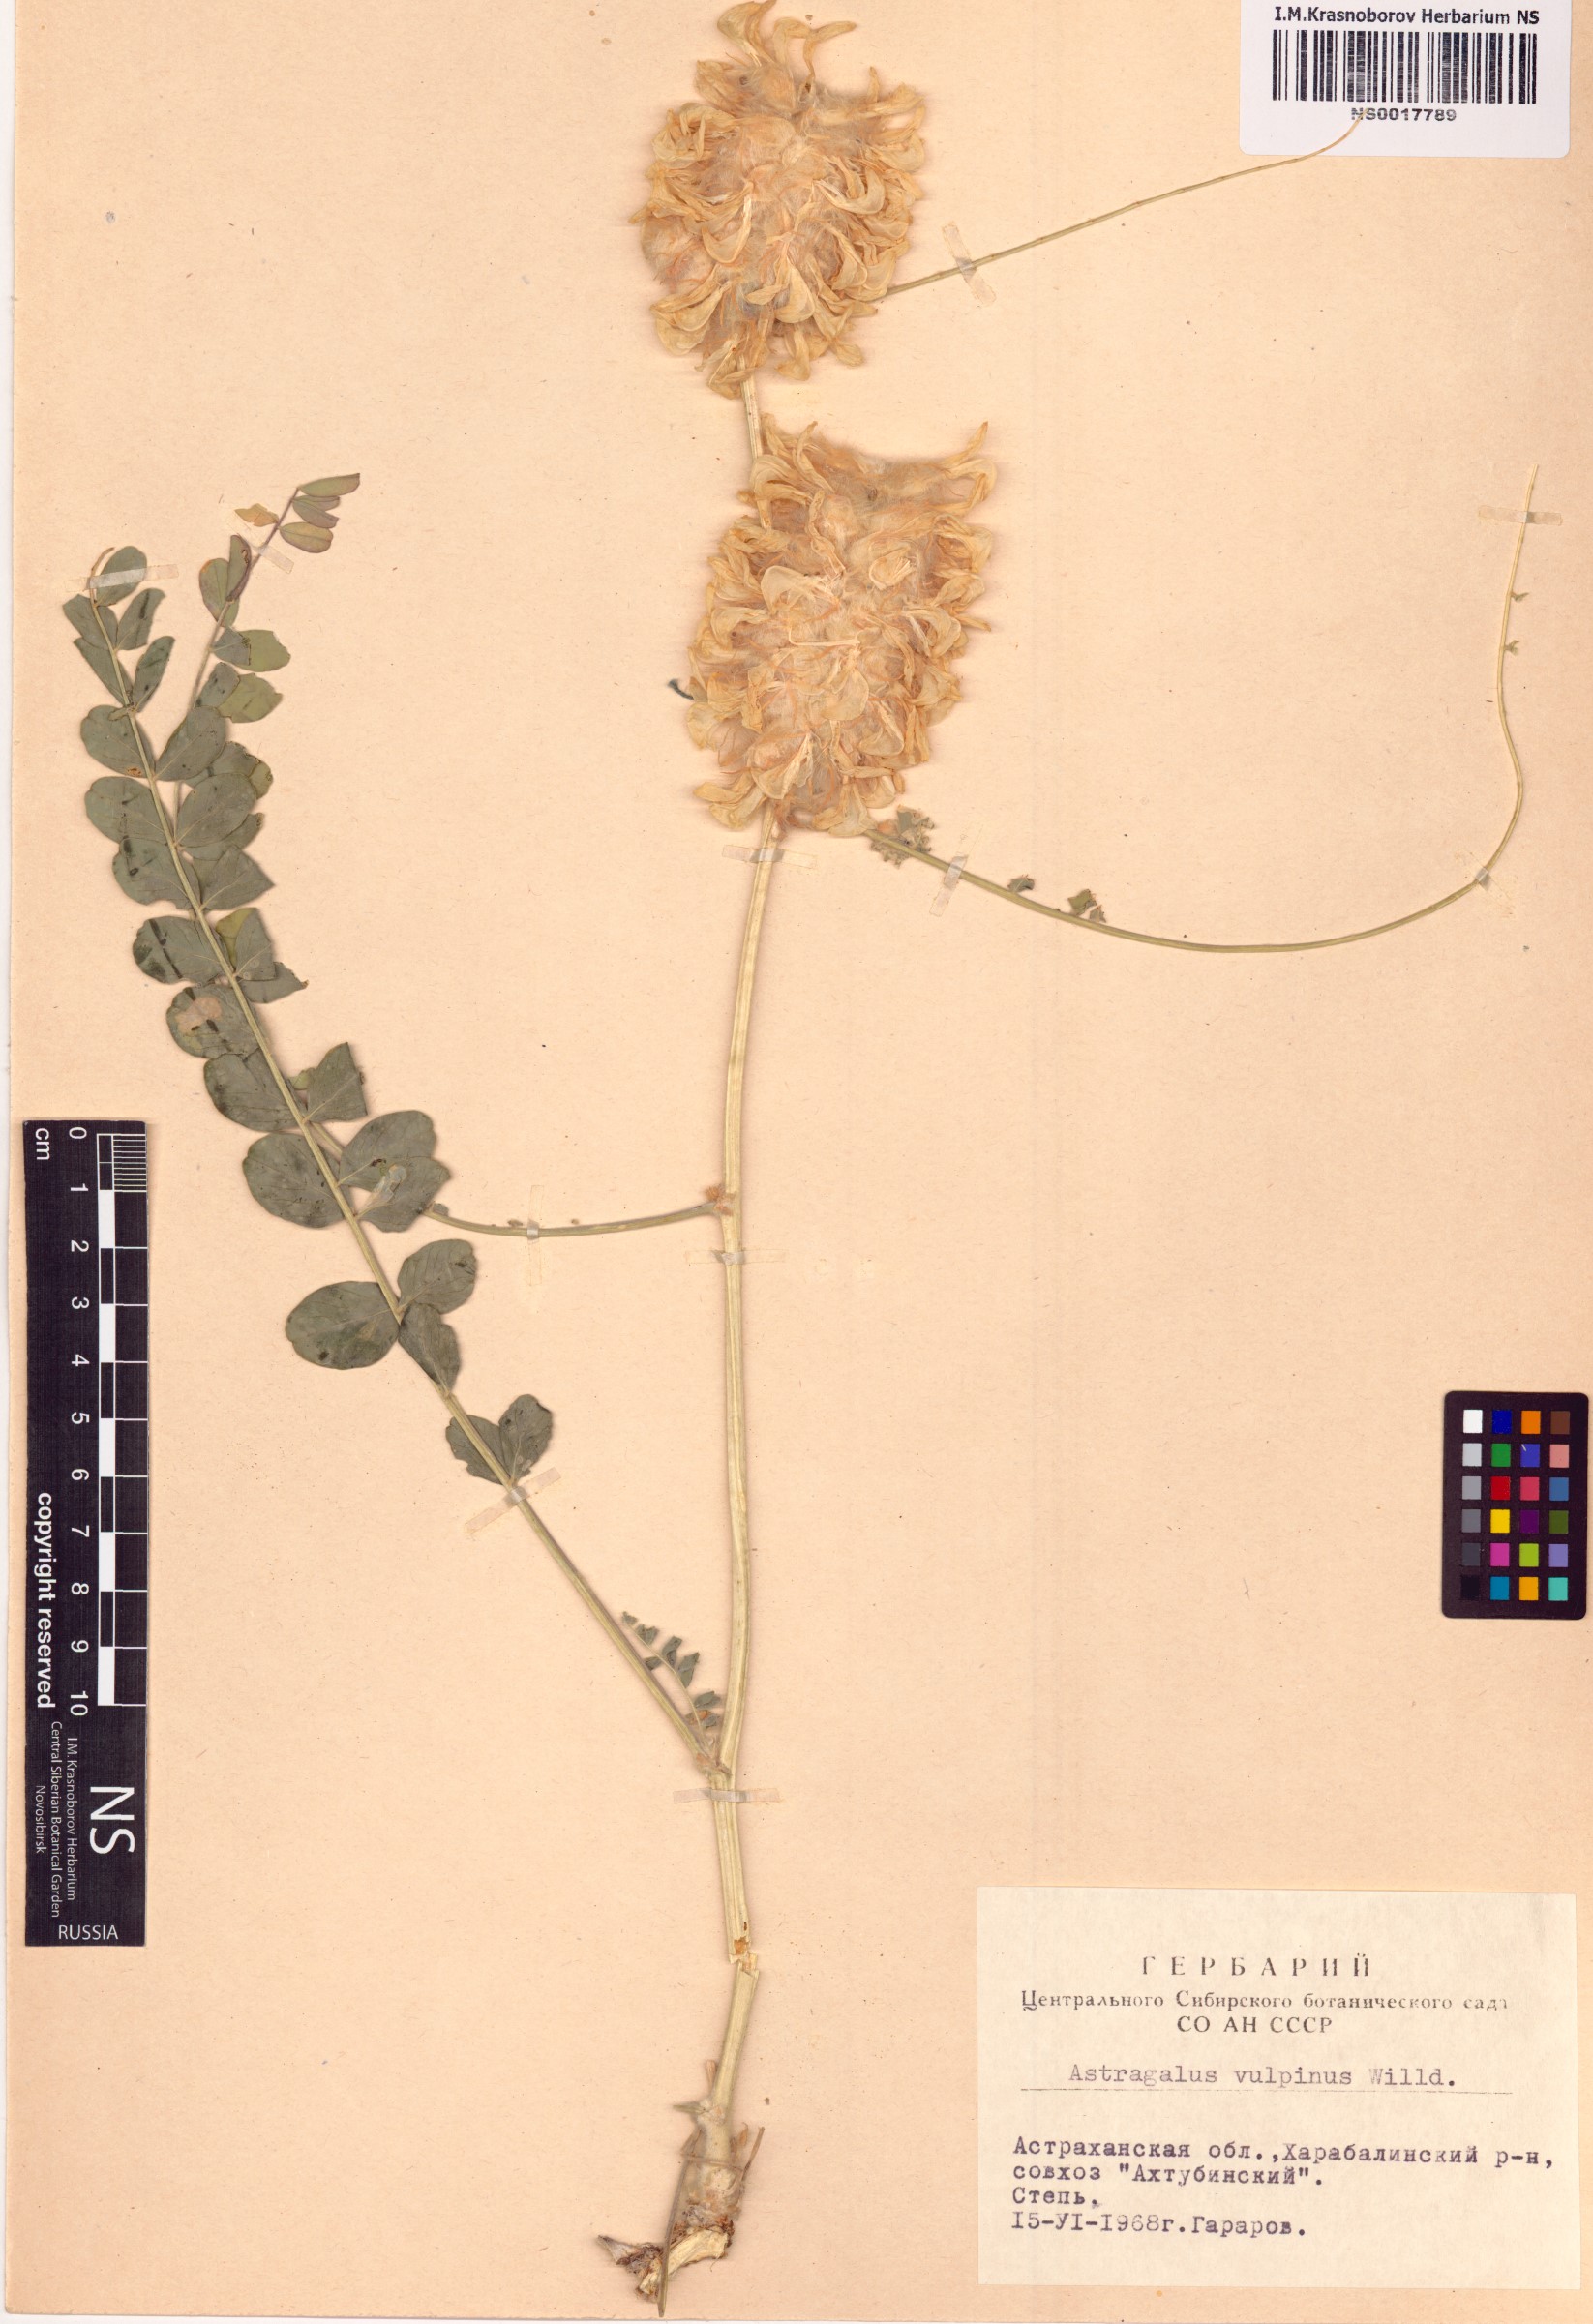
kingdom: Plantae
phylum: Tracheophyta
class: Magnoliopsida
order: Fabales
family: Fabaceae
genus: Astragalus
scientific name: Astragalus vulpinus
